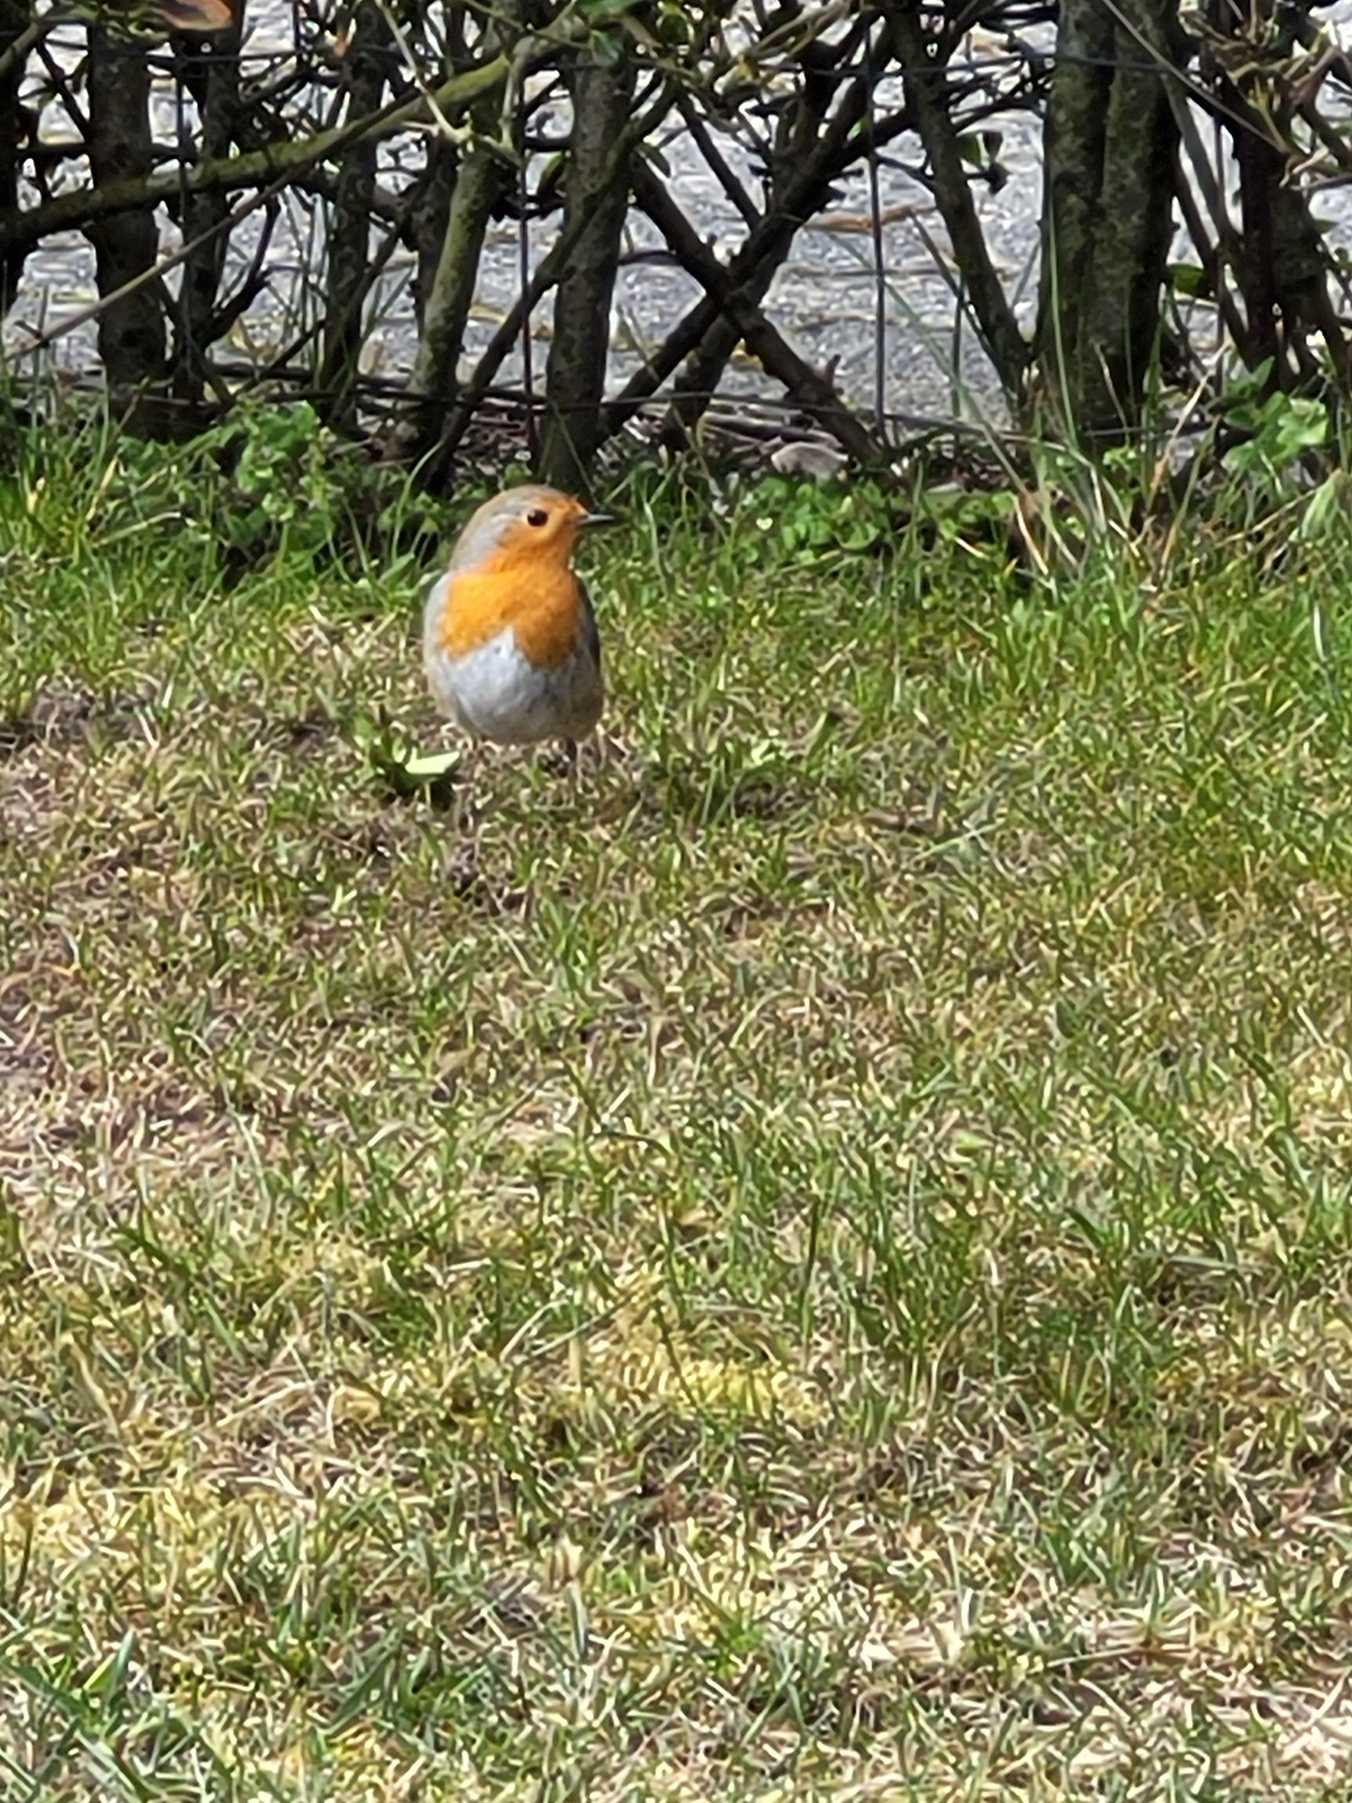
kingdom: Animalia
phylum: Chordata
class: Aves
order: Passeriformes
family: Muscicapidae
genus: Erithacus
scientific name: Erithacus rubecula
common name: Rødhals/rødkælk
